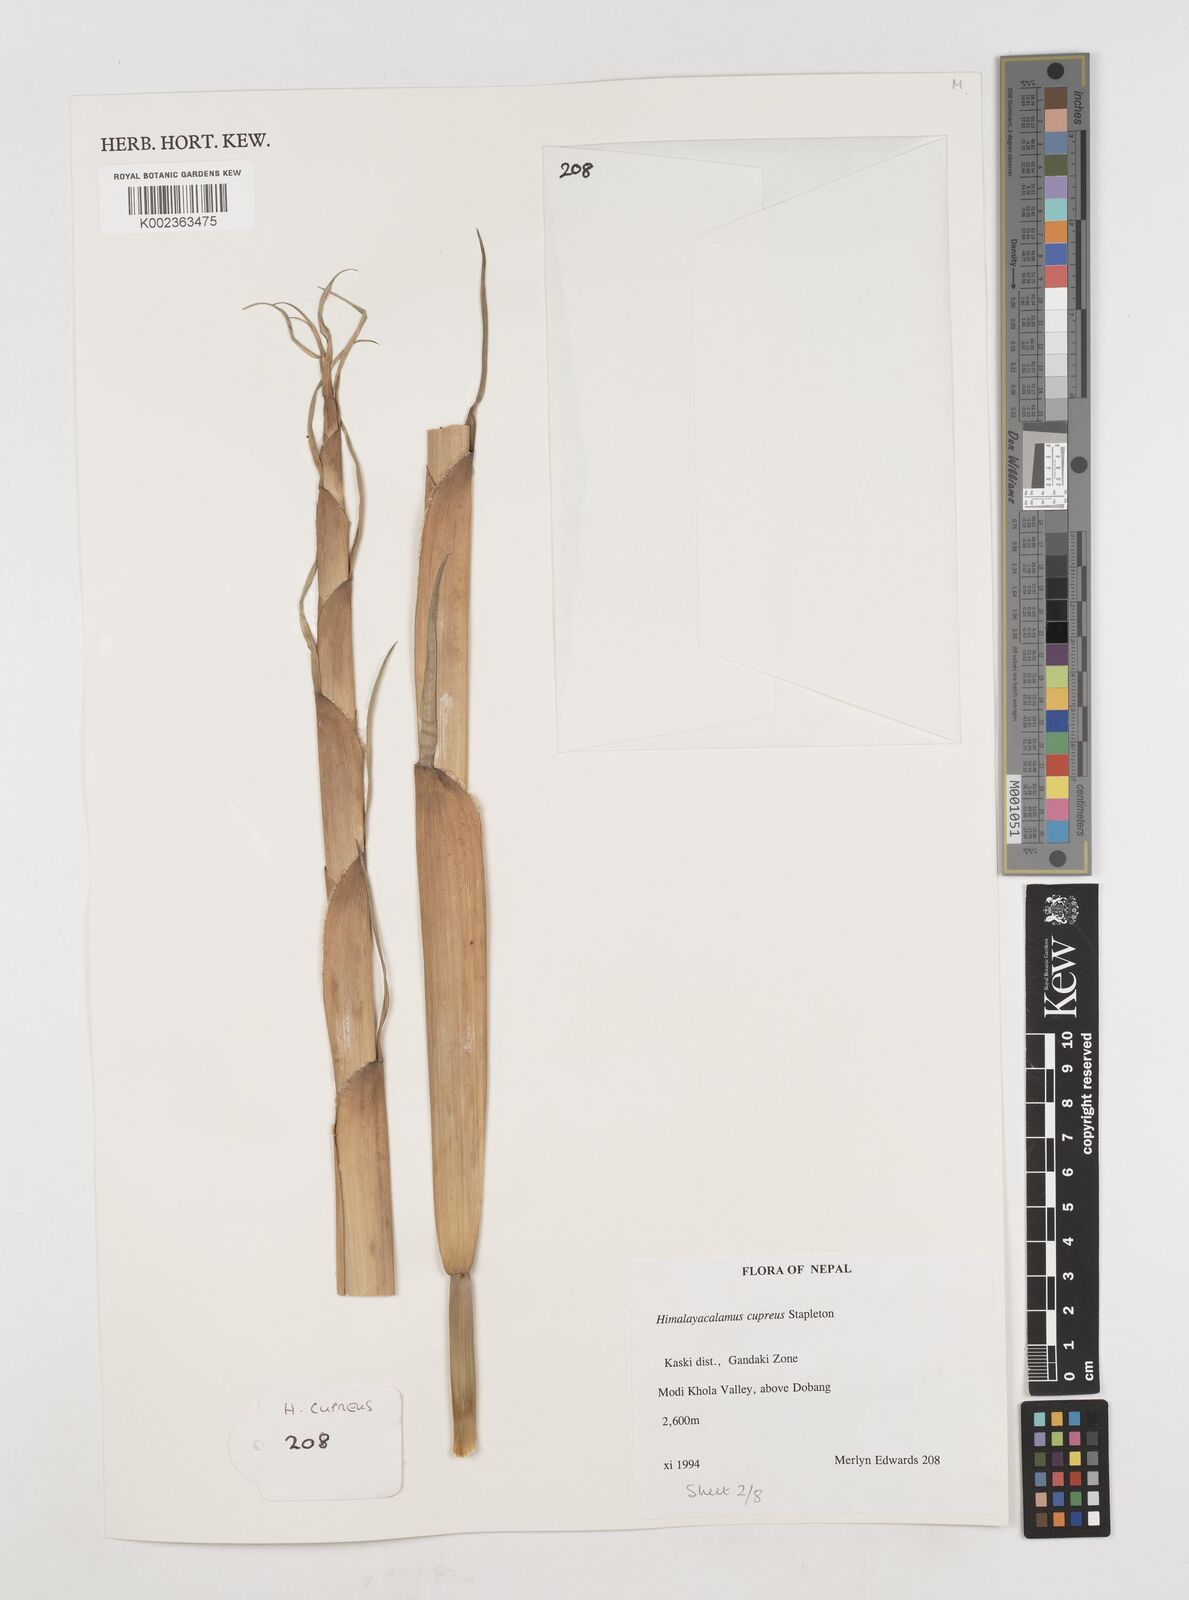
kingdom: Plantae
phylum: Tracheophyta
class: Liliopsida
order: Poales
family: Poaceae
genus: Himalayacalamus
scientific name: Himalayacalamus cupreus
